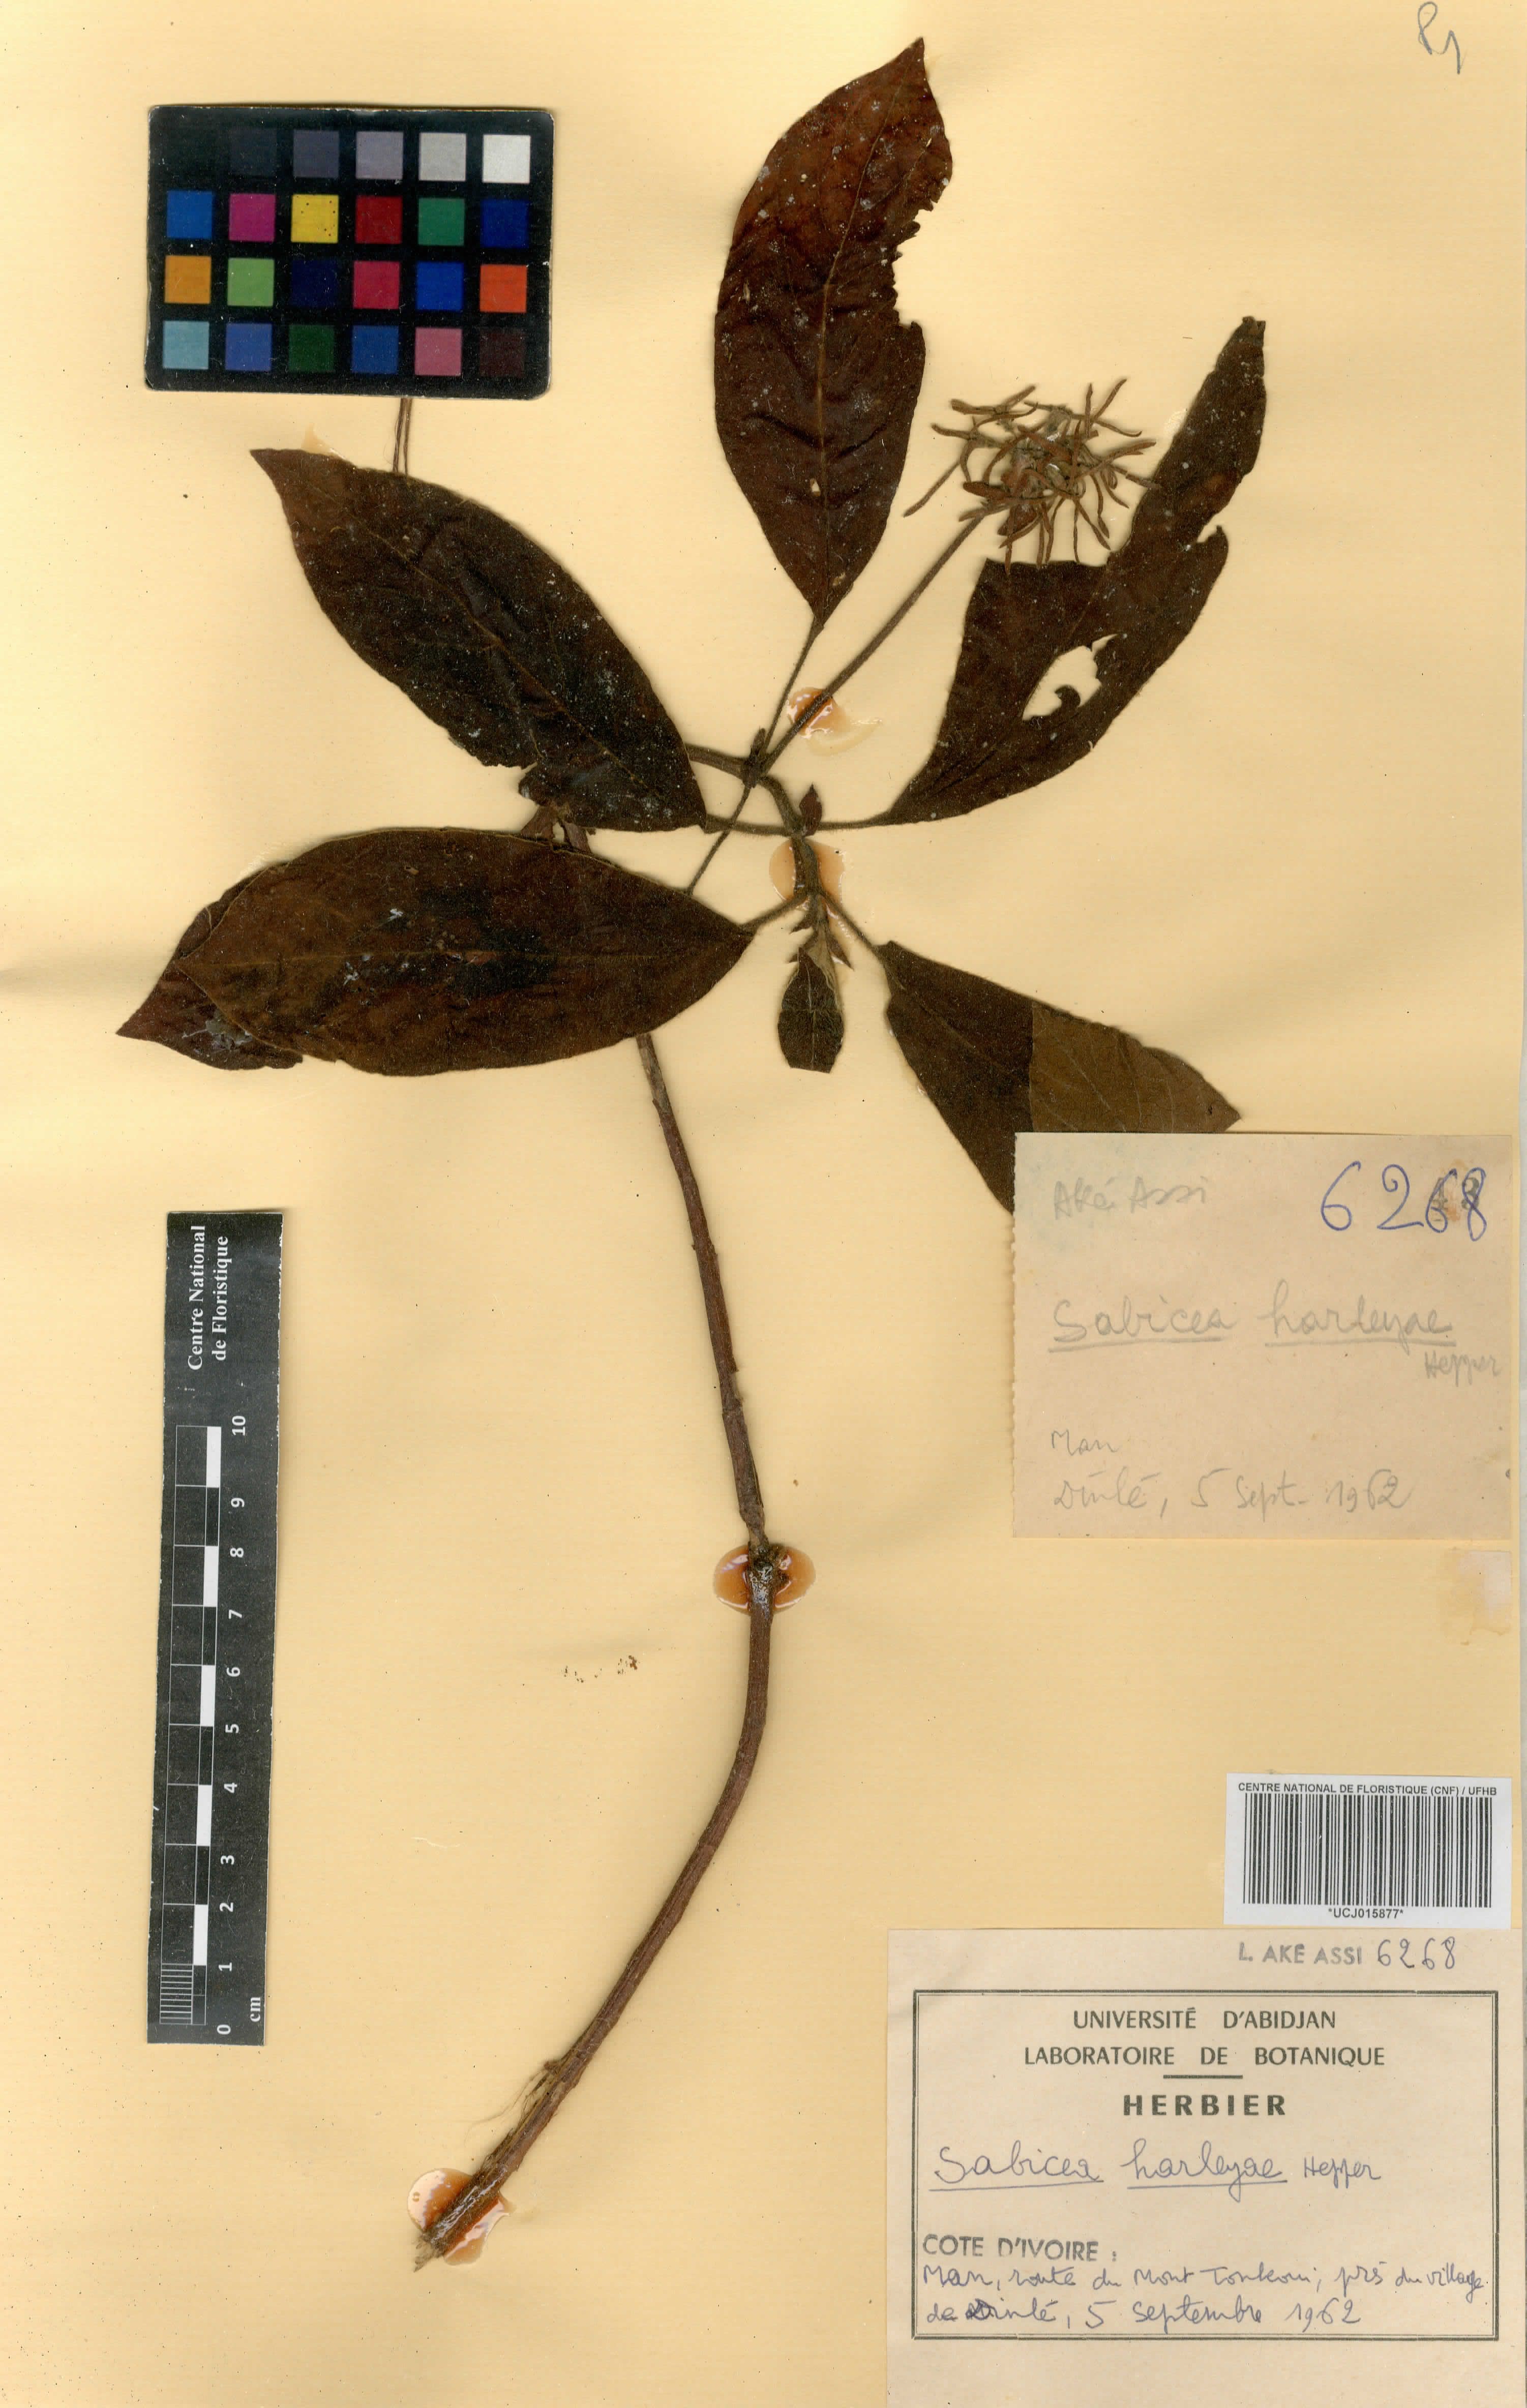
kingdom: Plantae
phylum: Tracheophyta
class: Magnoliopsida
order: Gentianales
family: Rubiaceae
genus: Sabicea
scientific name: Sabicea harleyae
